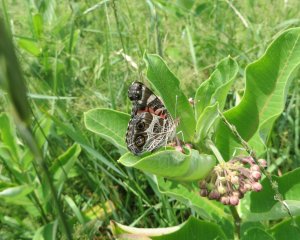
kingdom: Animalia
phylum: Arthropoda
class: Insecta
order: Lepidoptera
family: Nymphalidae
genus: Vanessa
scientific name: Vanessa virginiensis
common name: American Lady
